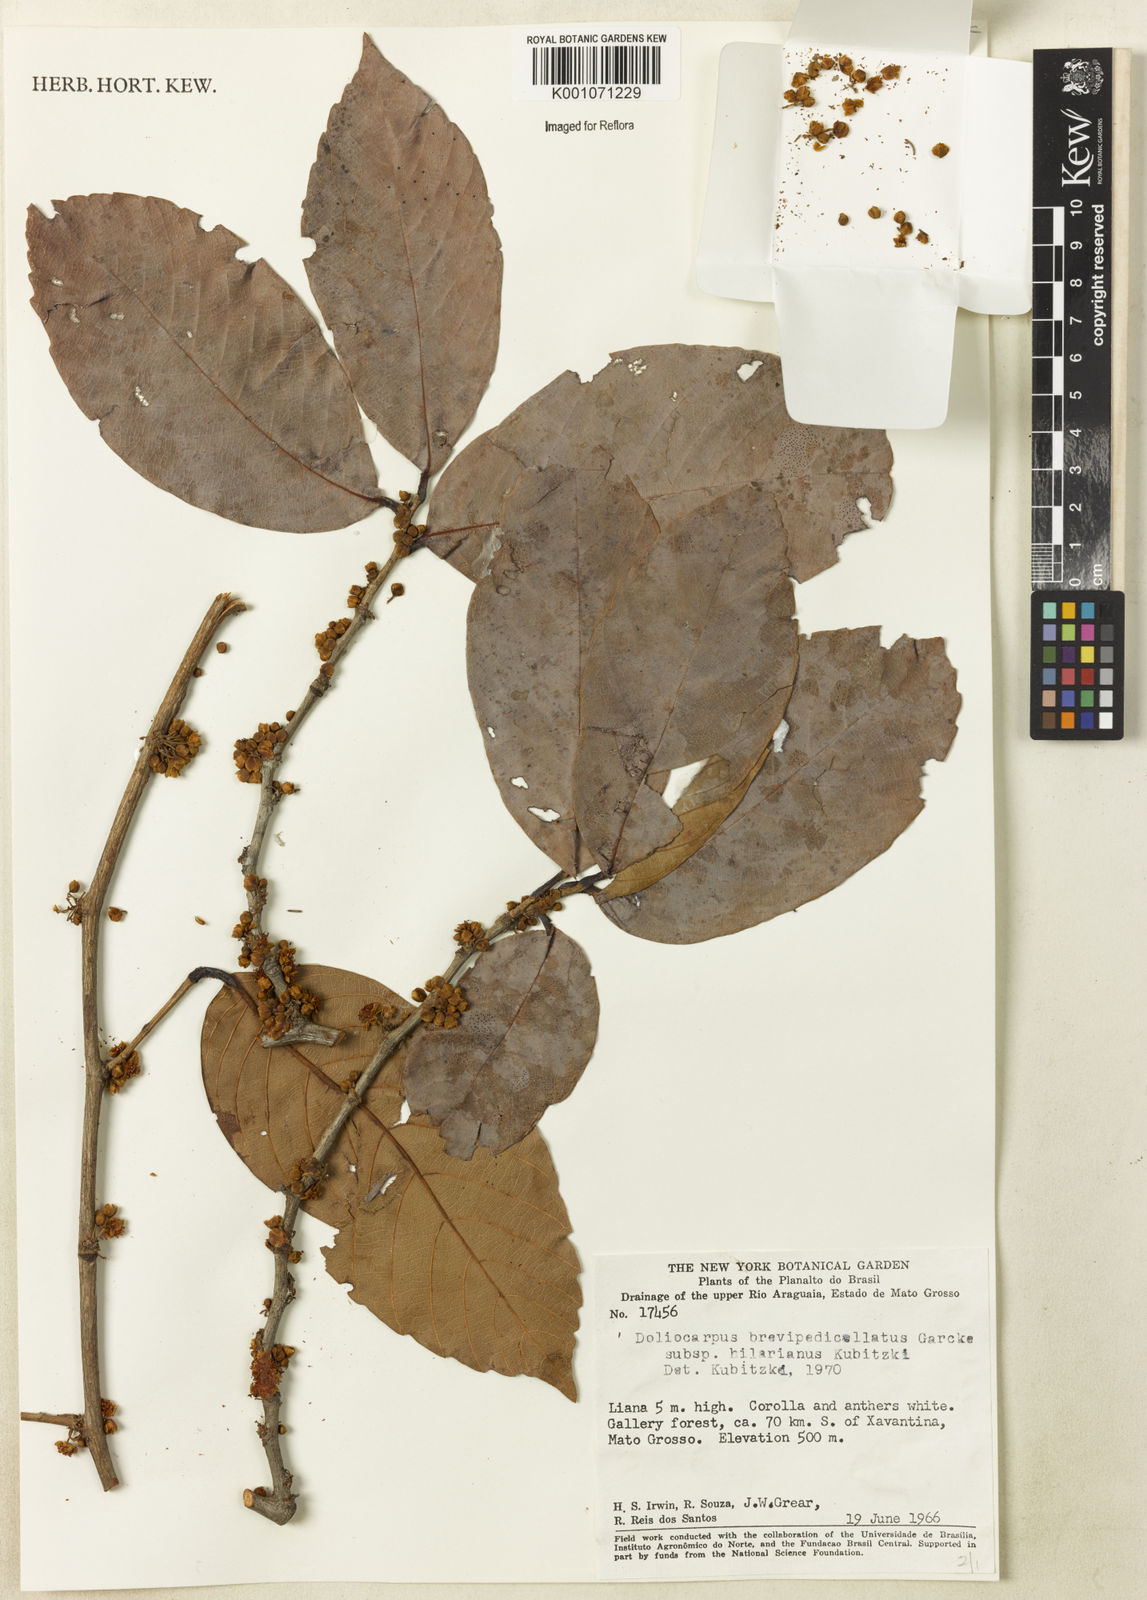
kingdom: Plantae
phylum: Tracheophyta
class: Magnoliopsida
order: Dilleniales
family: Dilleniaceae
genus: Doliocarpus
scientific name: Doliocarpus hilarianus
